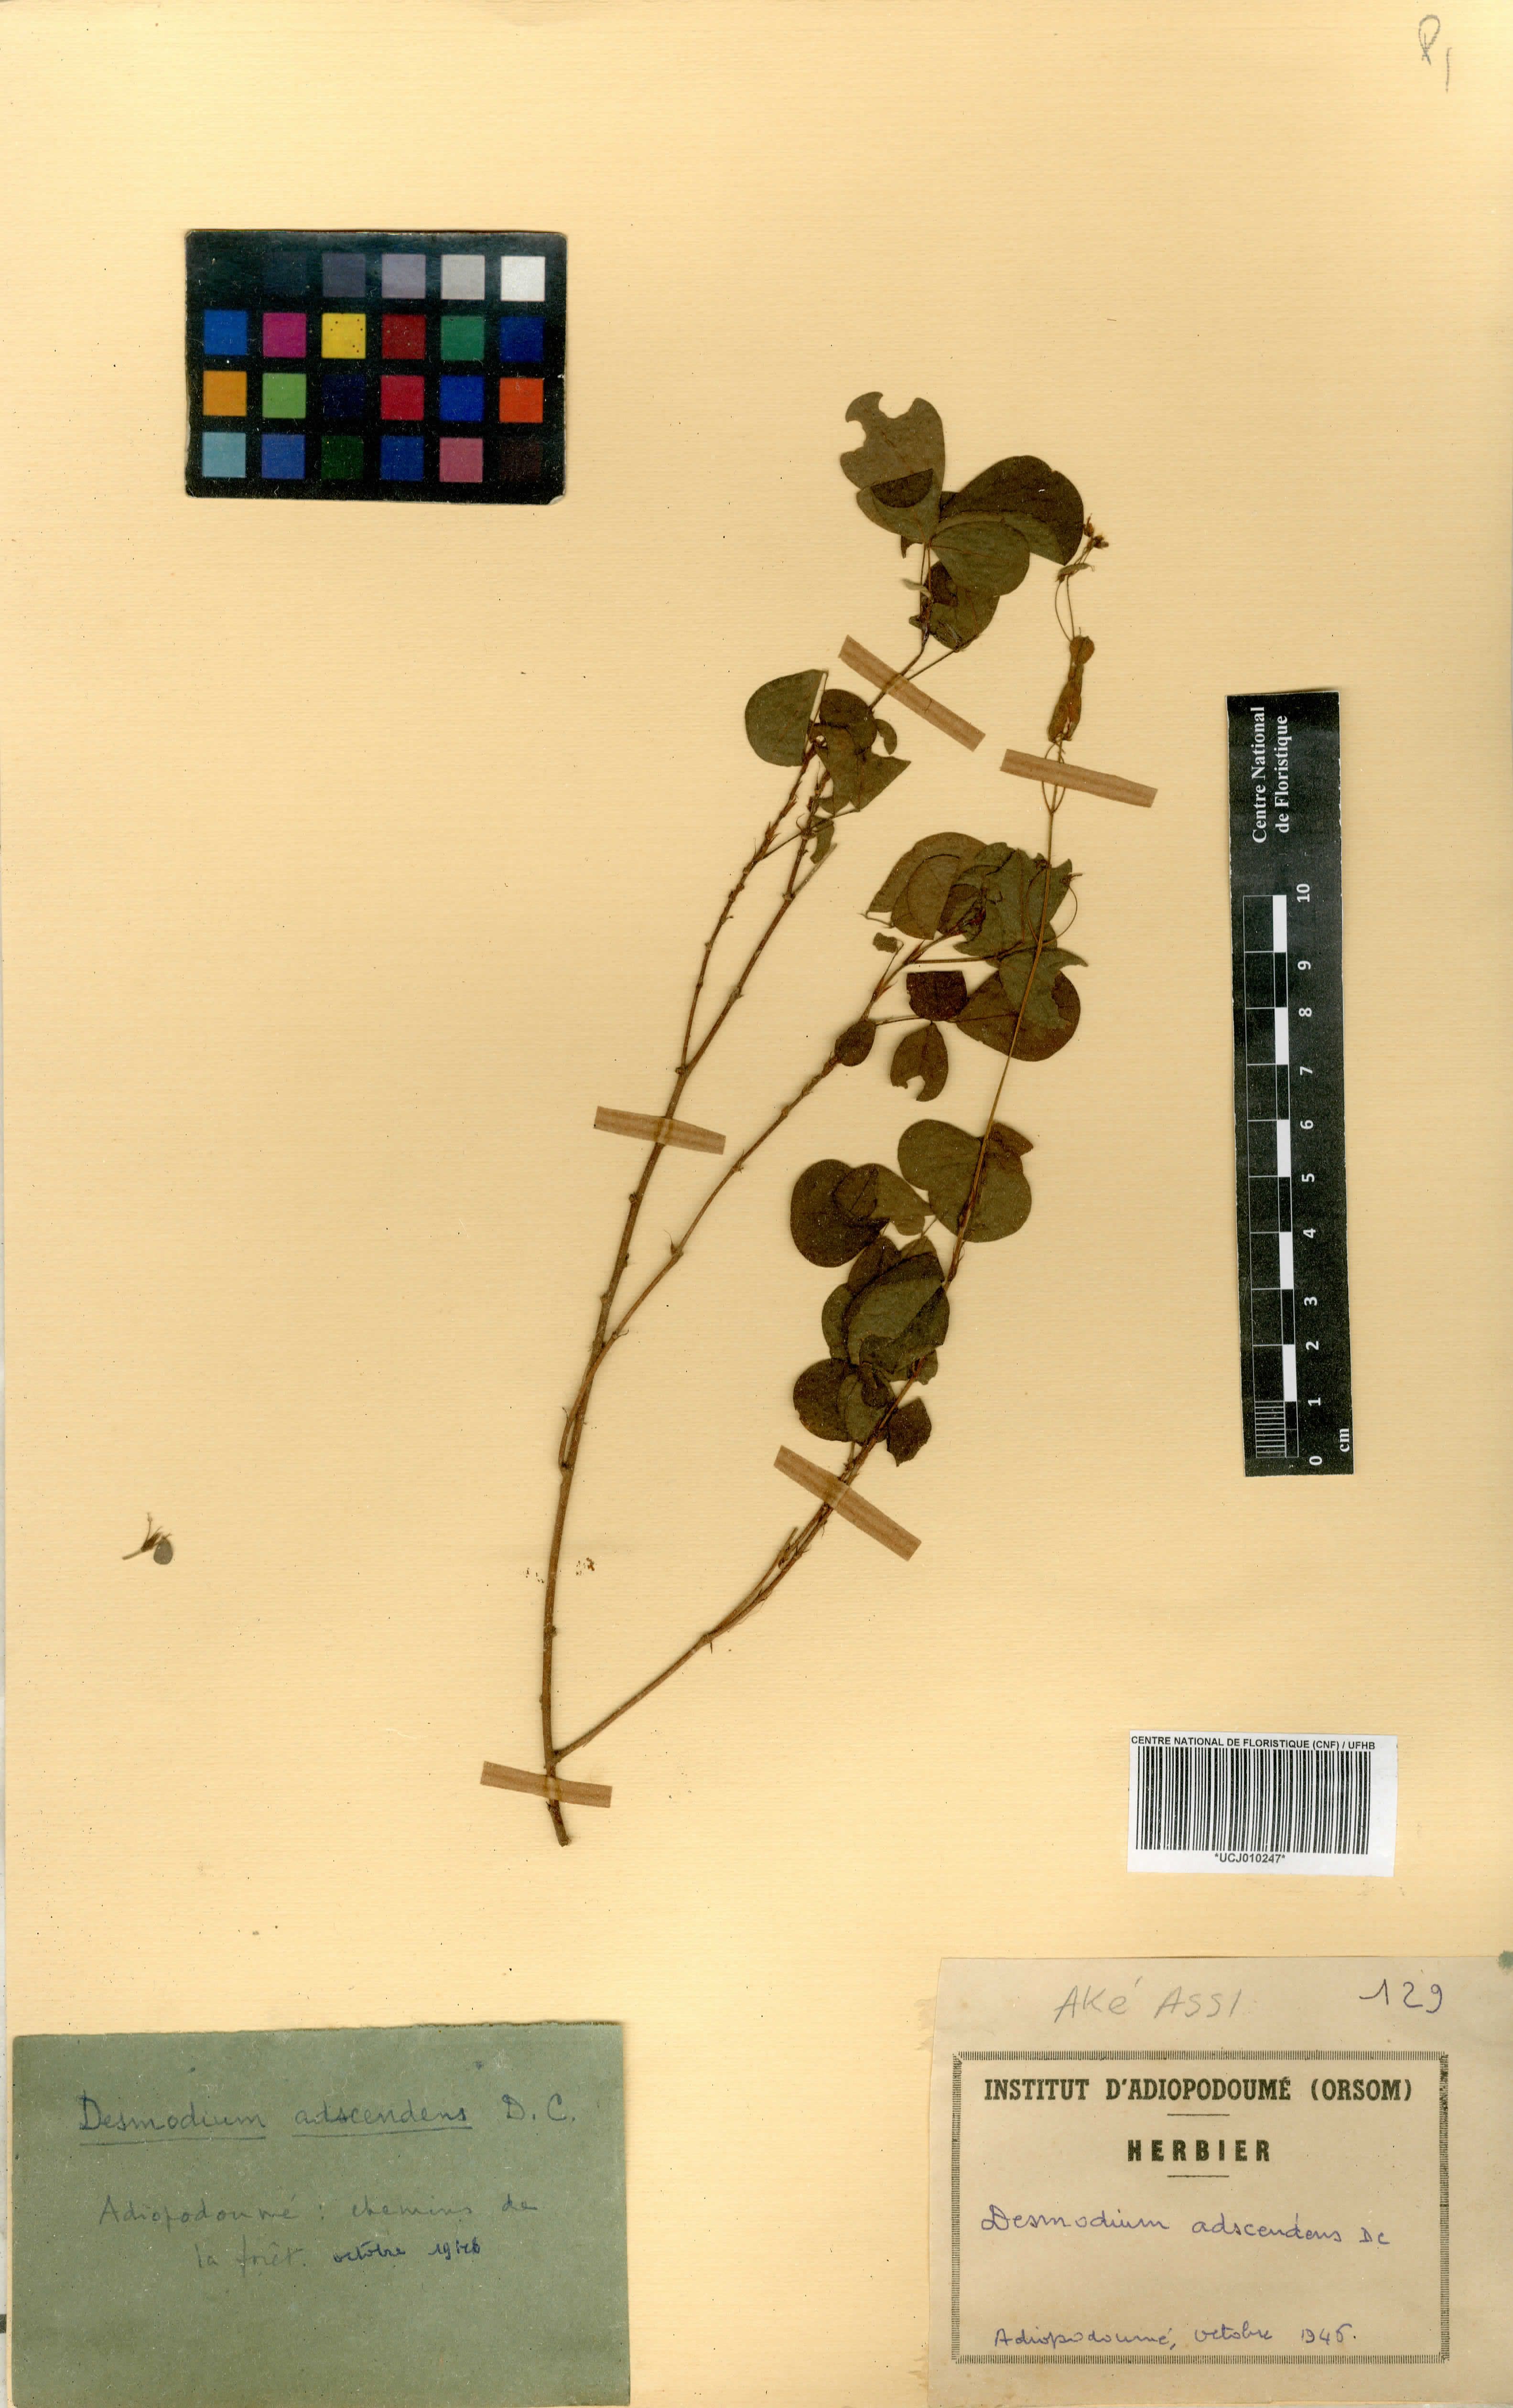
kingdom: Plantae
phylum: Tracheophyta
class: Magnoliopsida
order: Fabales
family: Fabaceae
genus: Grona
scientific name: Grona adscendens
